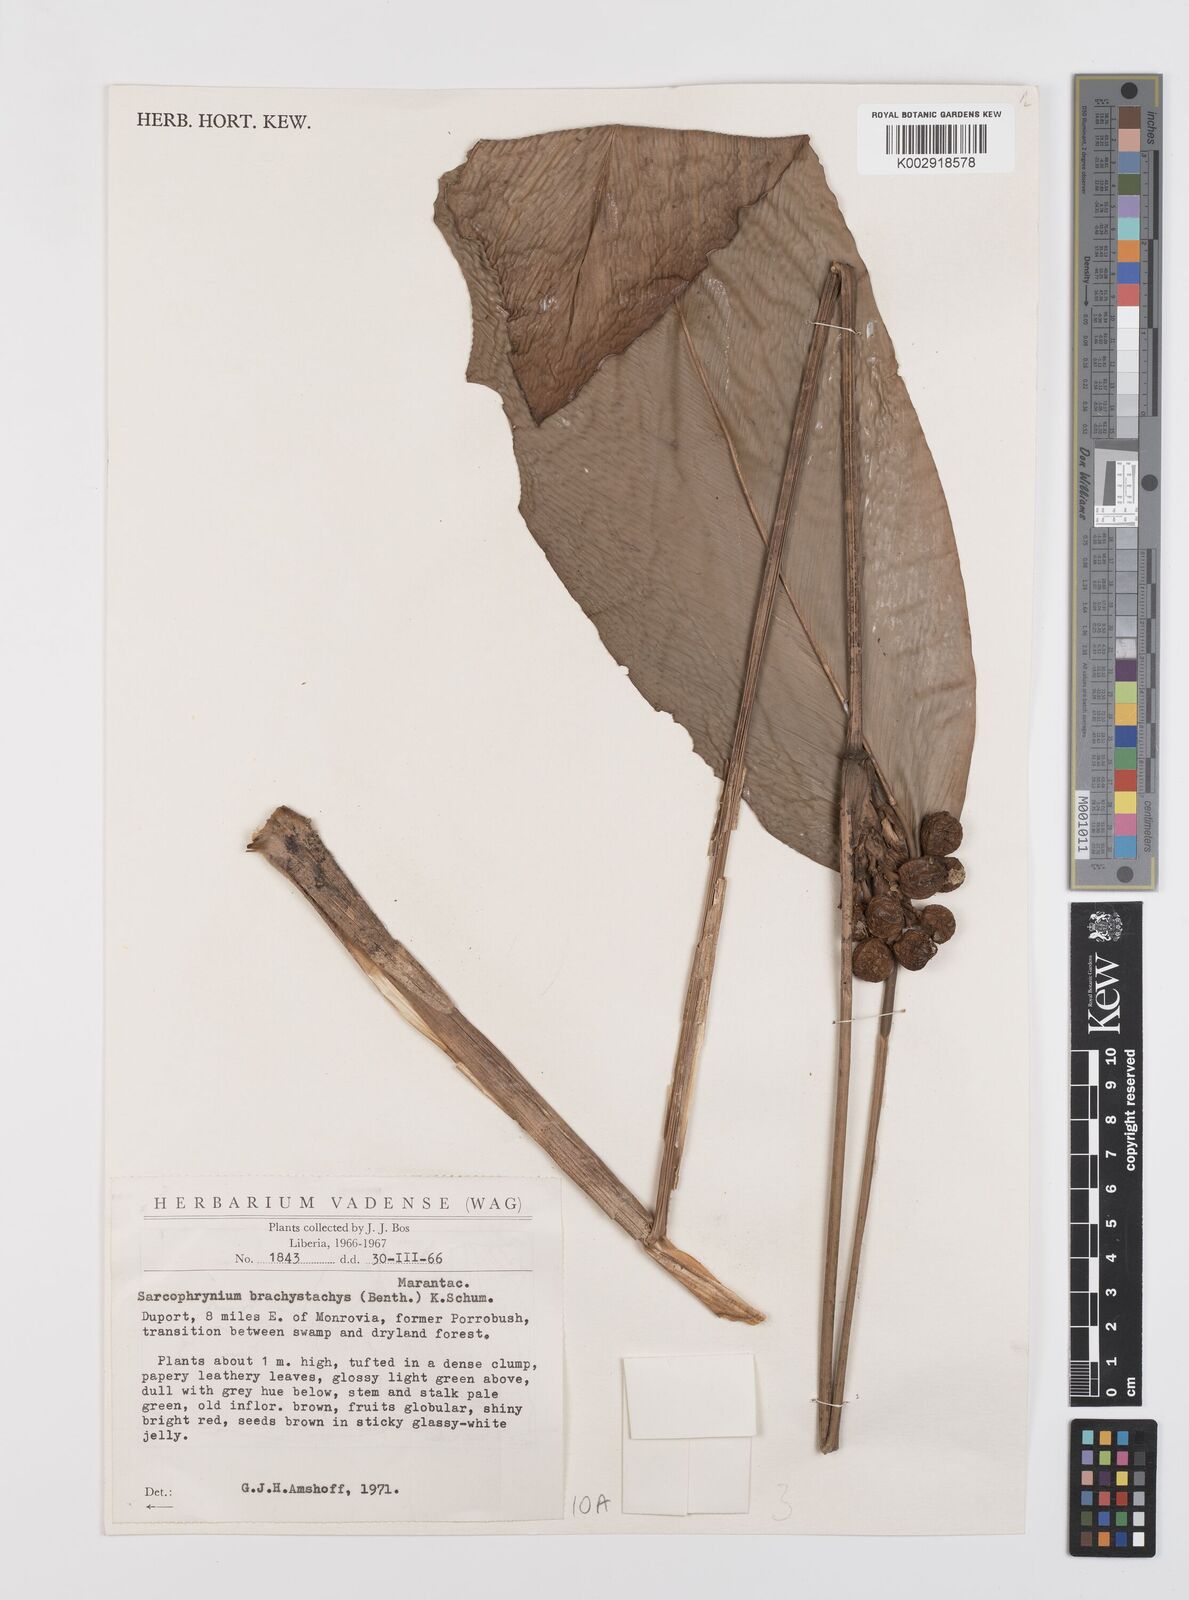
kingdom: Plantae
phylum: Tracheophyta
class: Liliopsida
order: Zingiberales
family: Marantaceae
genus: Sarcophrynium
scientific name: Sarcophrynium brachystachyum
